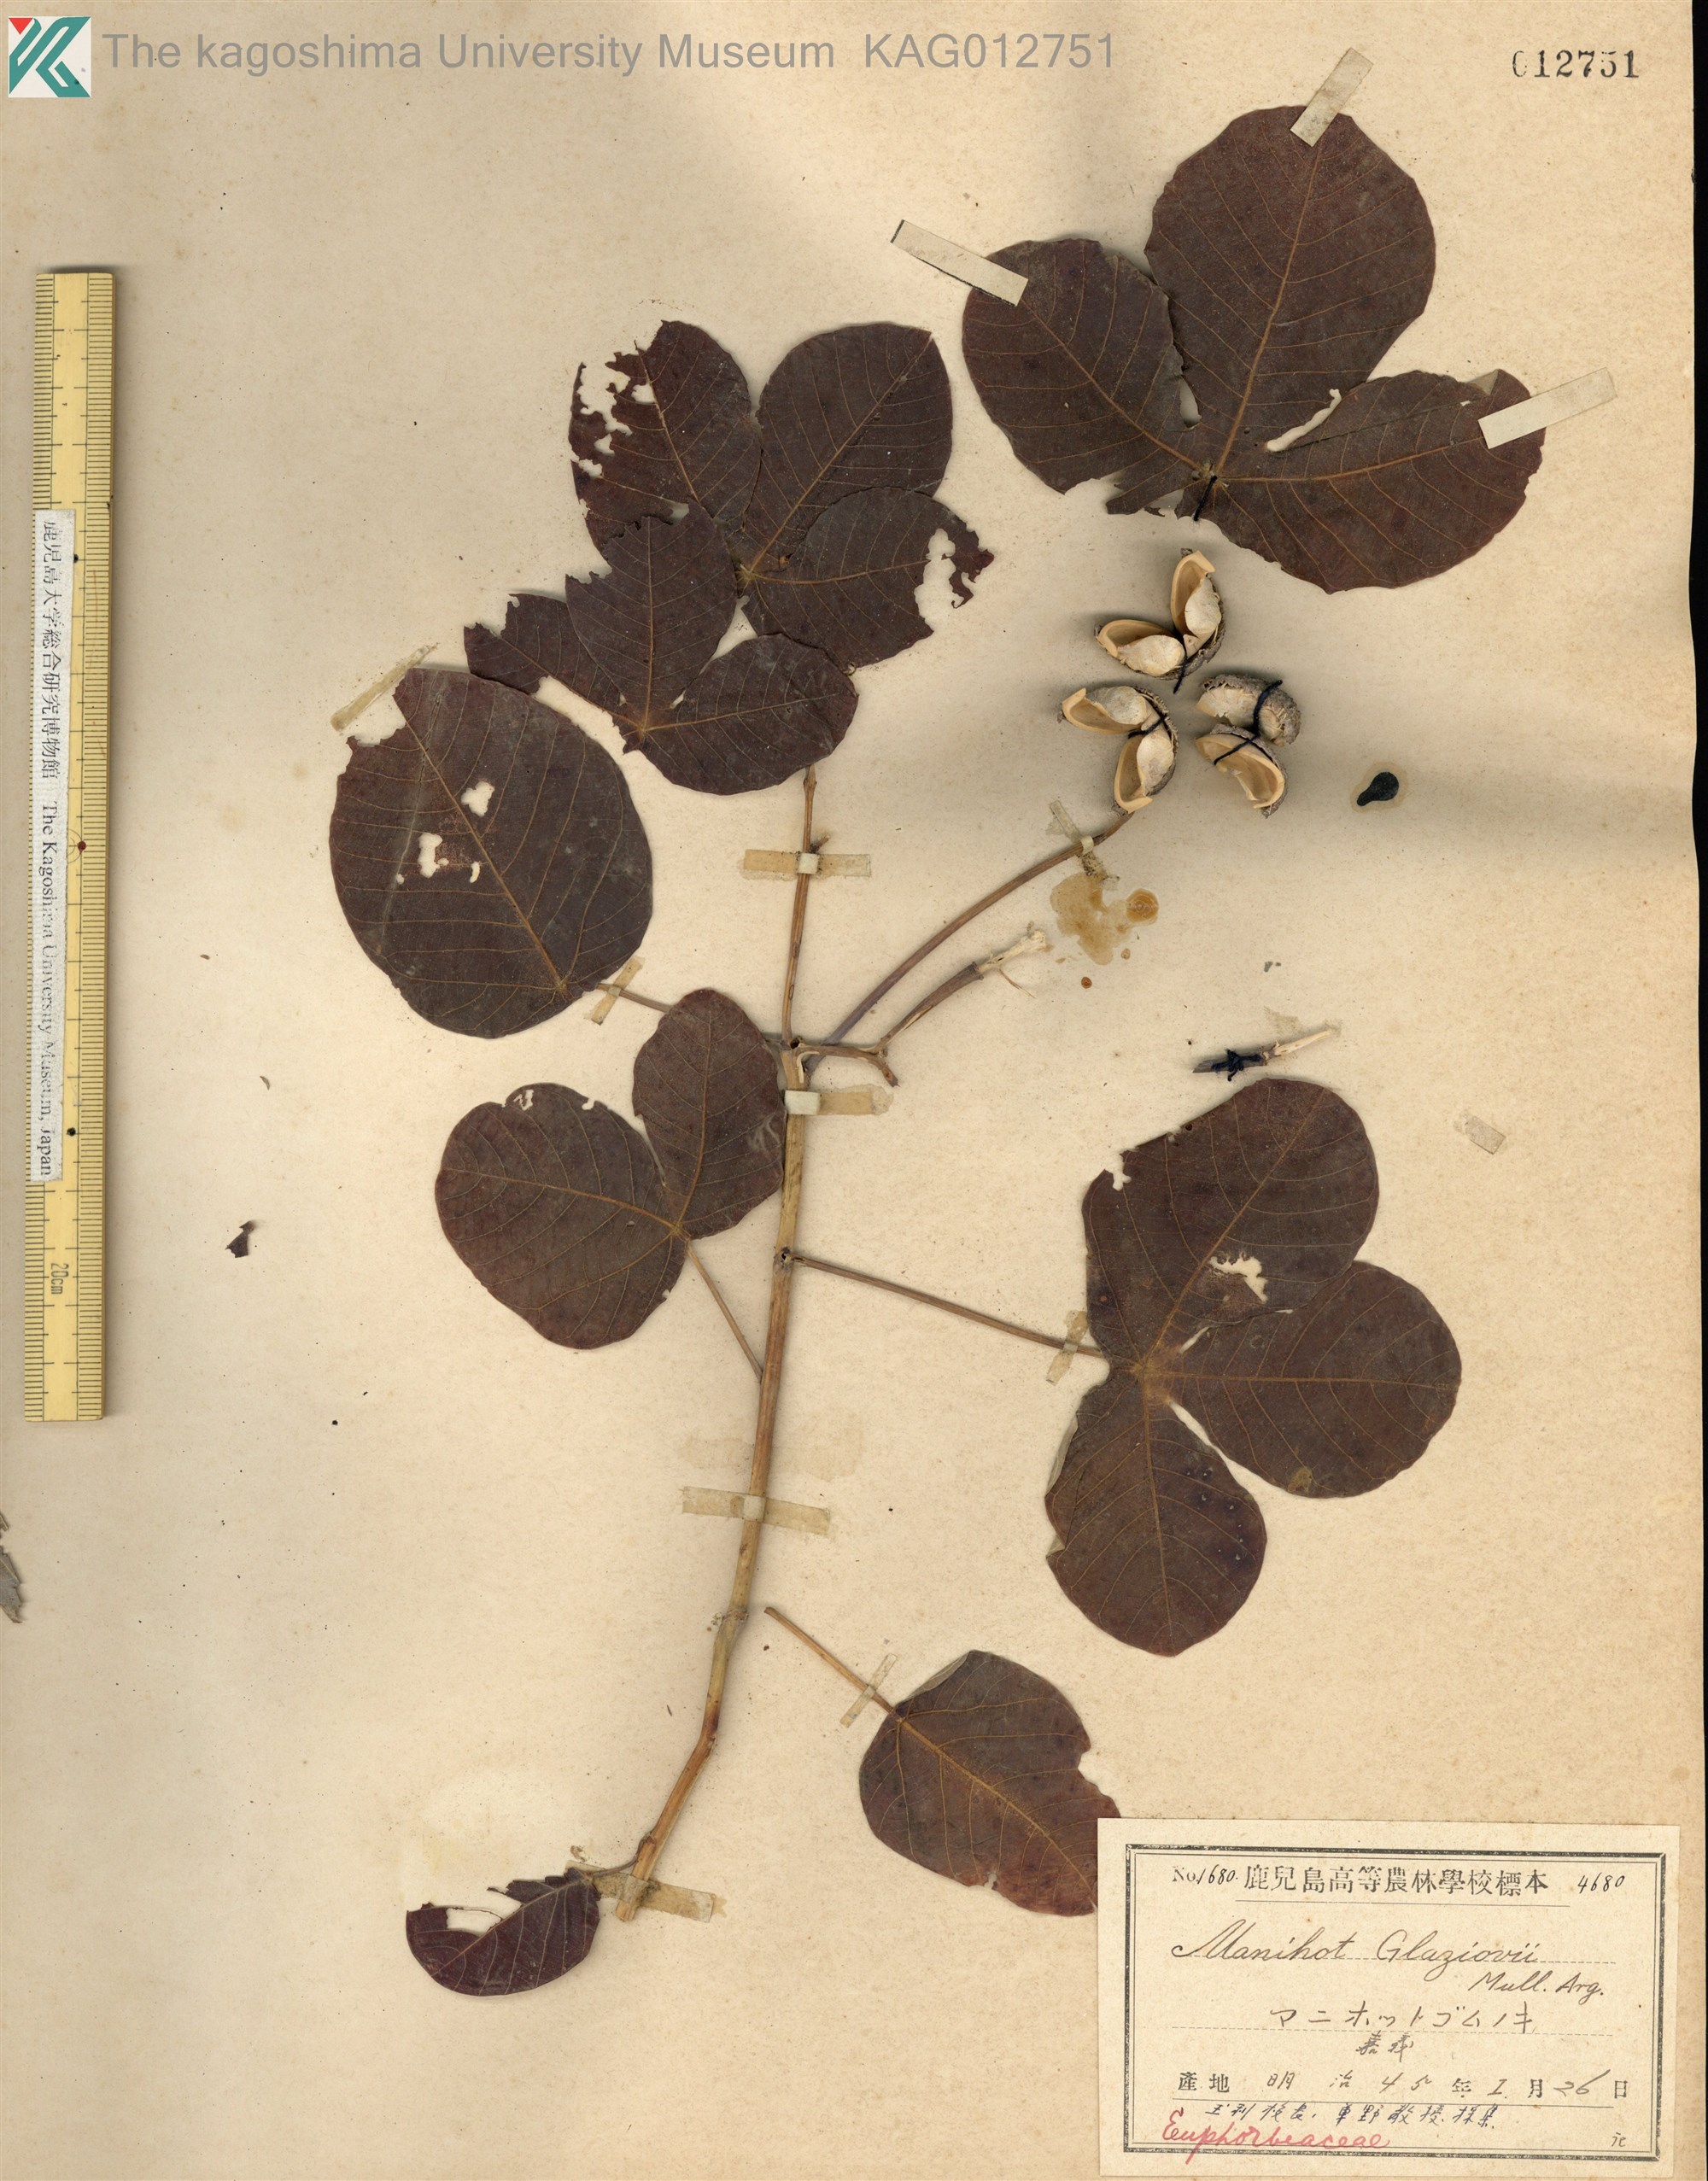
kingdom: Plantae
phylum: Tracheophyta
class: Magnoliopsida
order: Malpighiales
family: Euphorbiaceae
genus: Manihot
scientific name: Manihot carthagenensis
